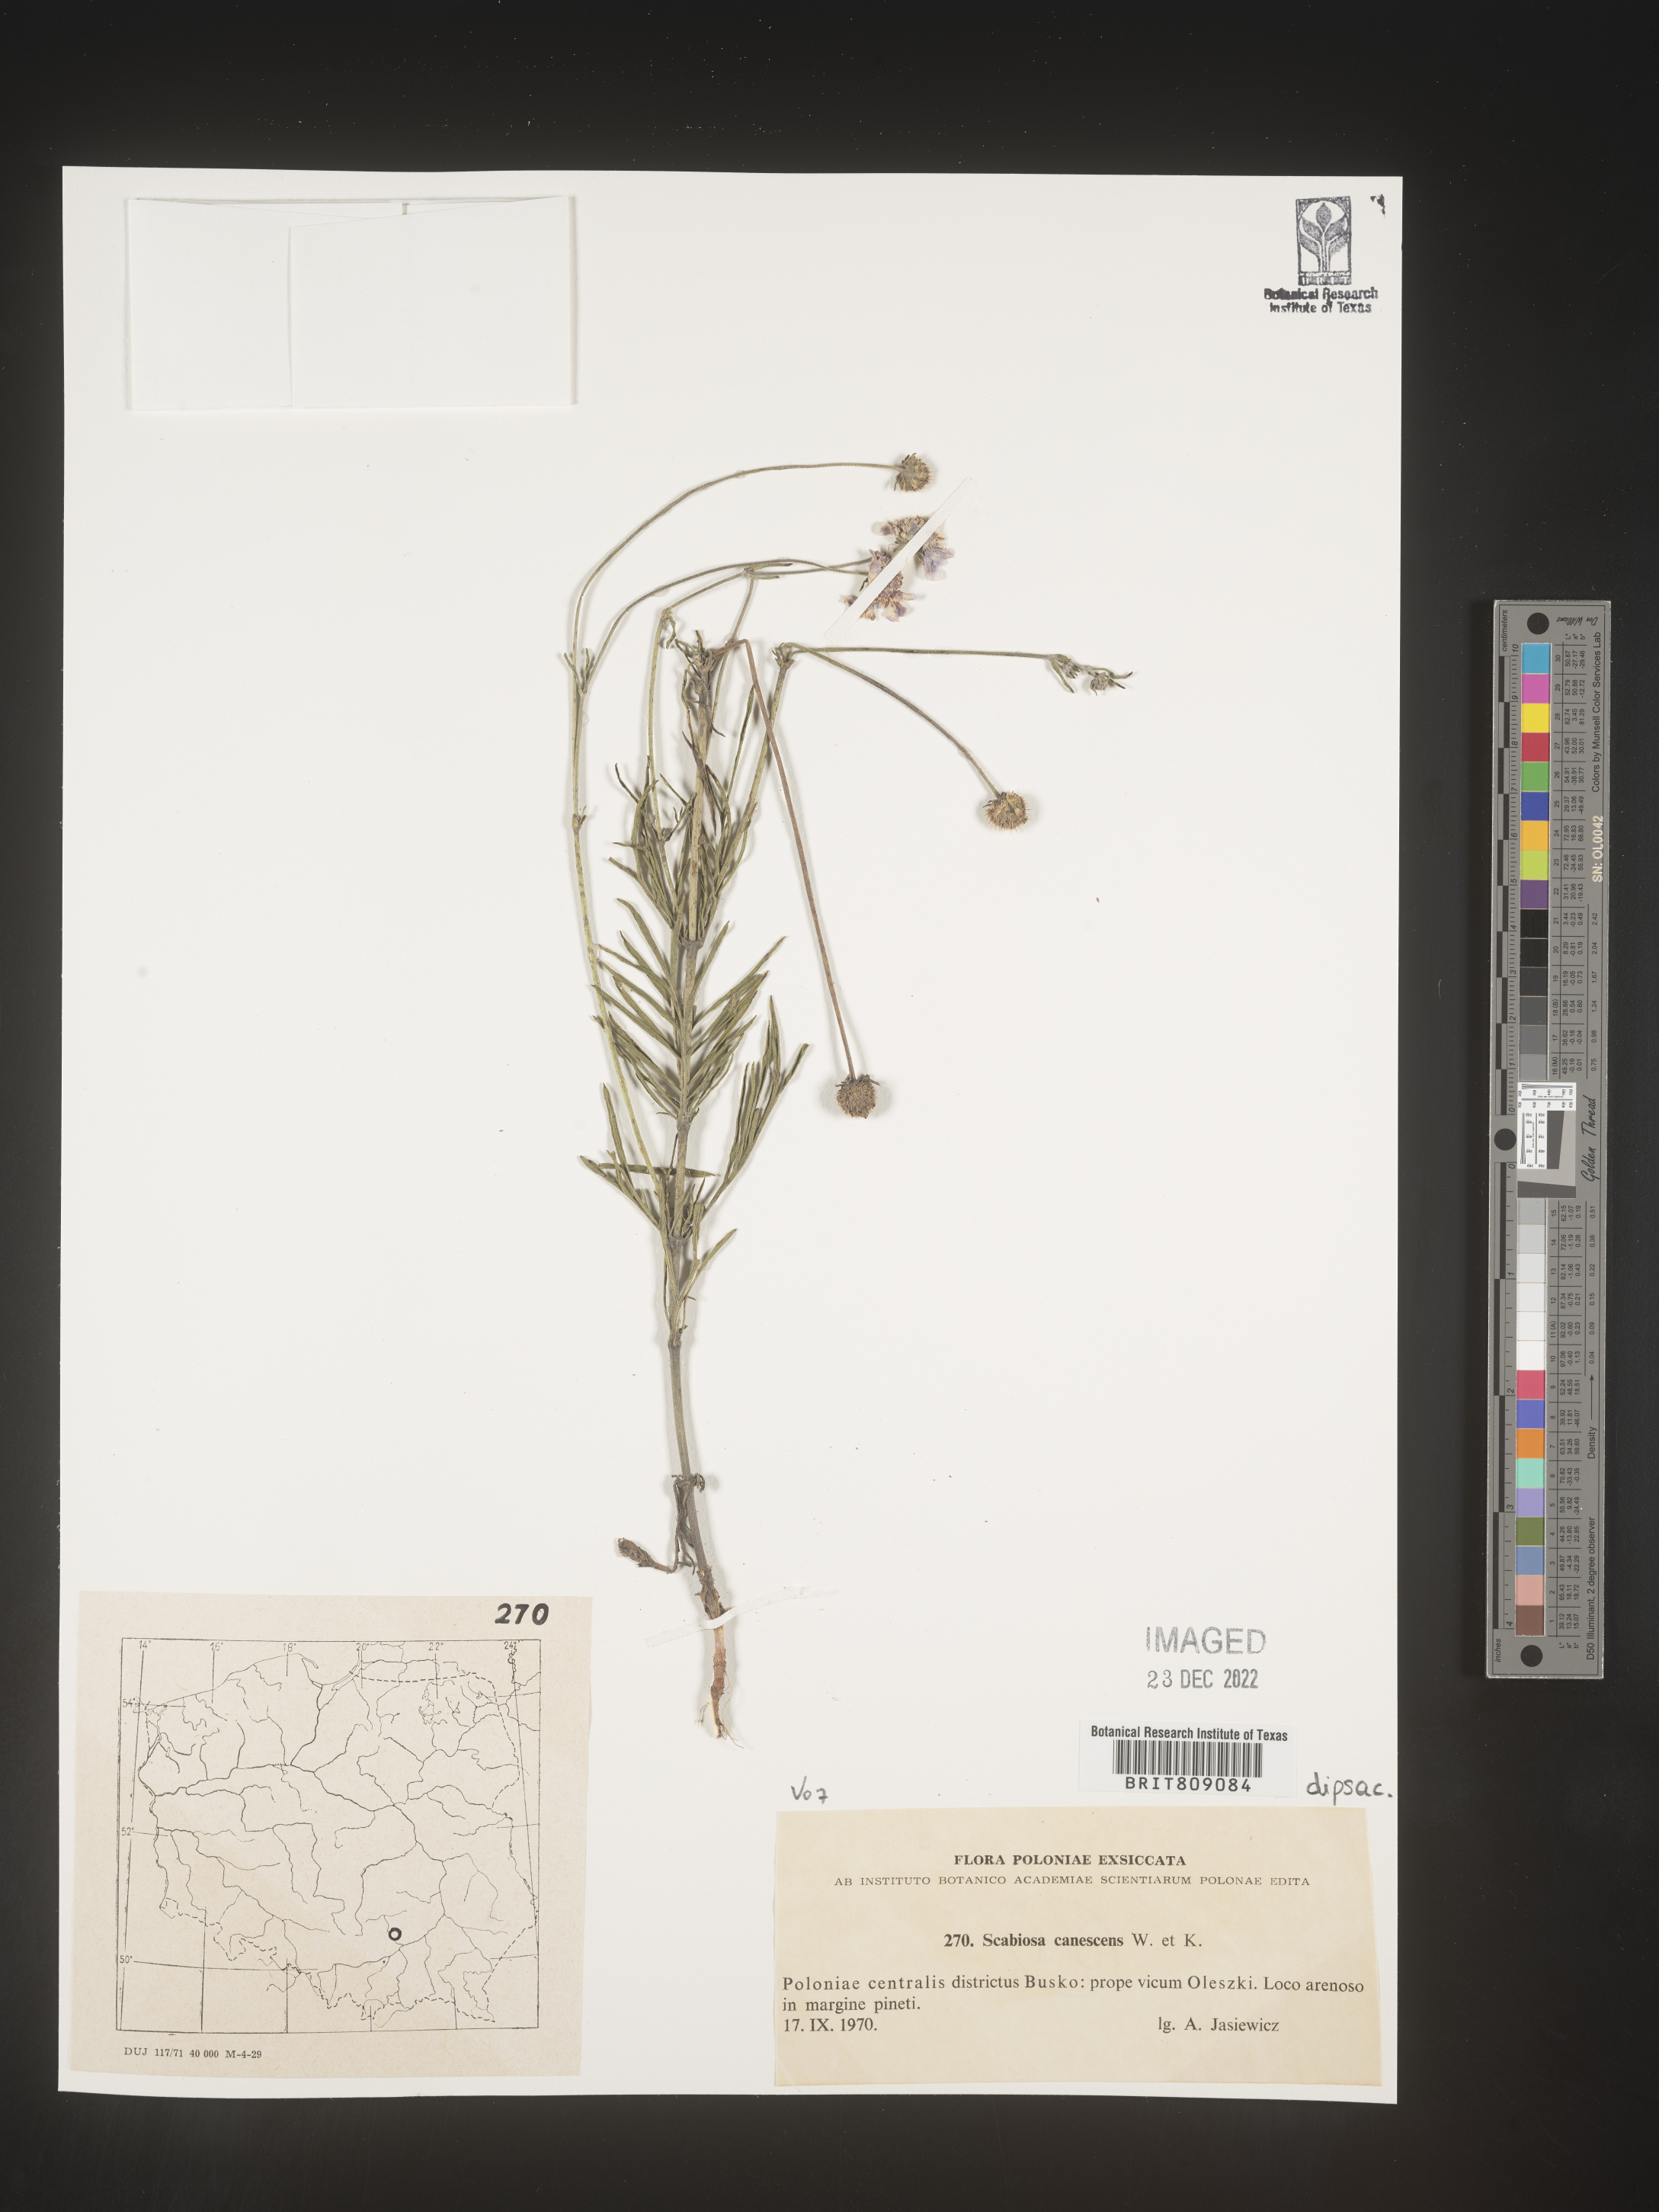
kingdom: Plantae
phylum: Tracheophyta
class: Magnoliopsida
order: Dipsacales
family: Caprifoliaceae
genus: Scabiosa
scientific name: Scabiosa
